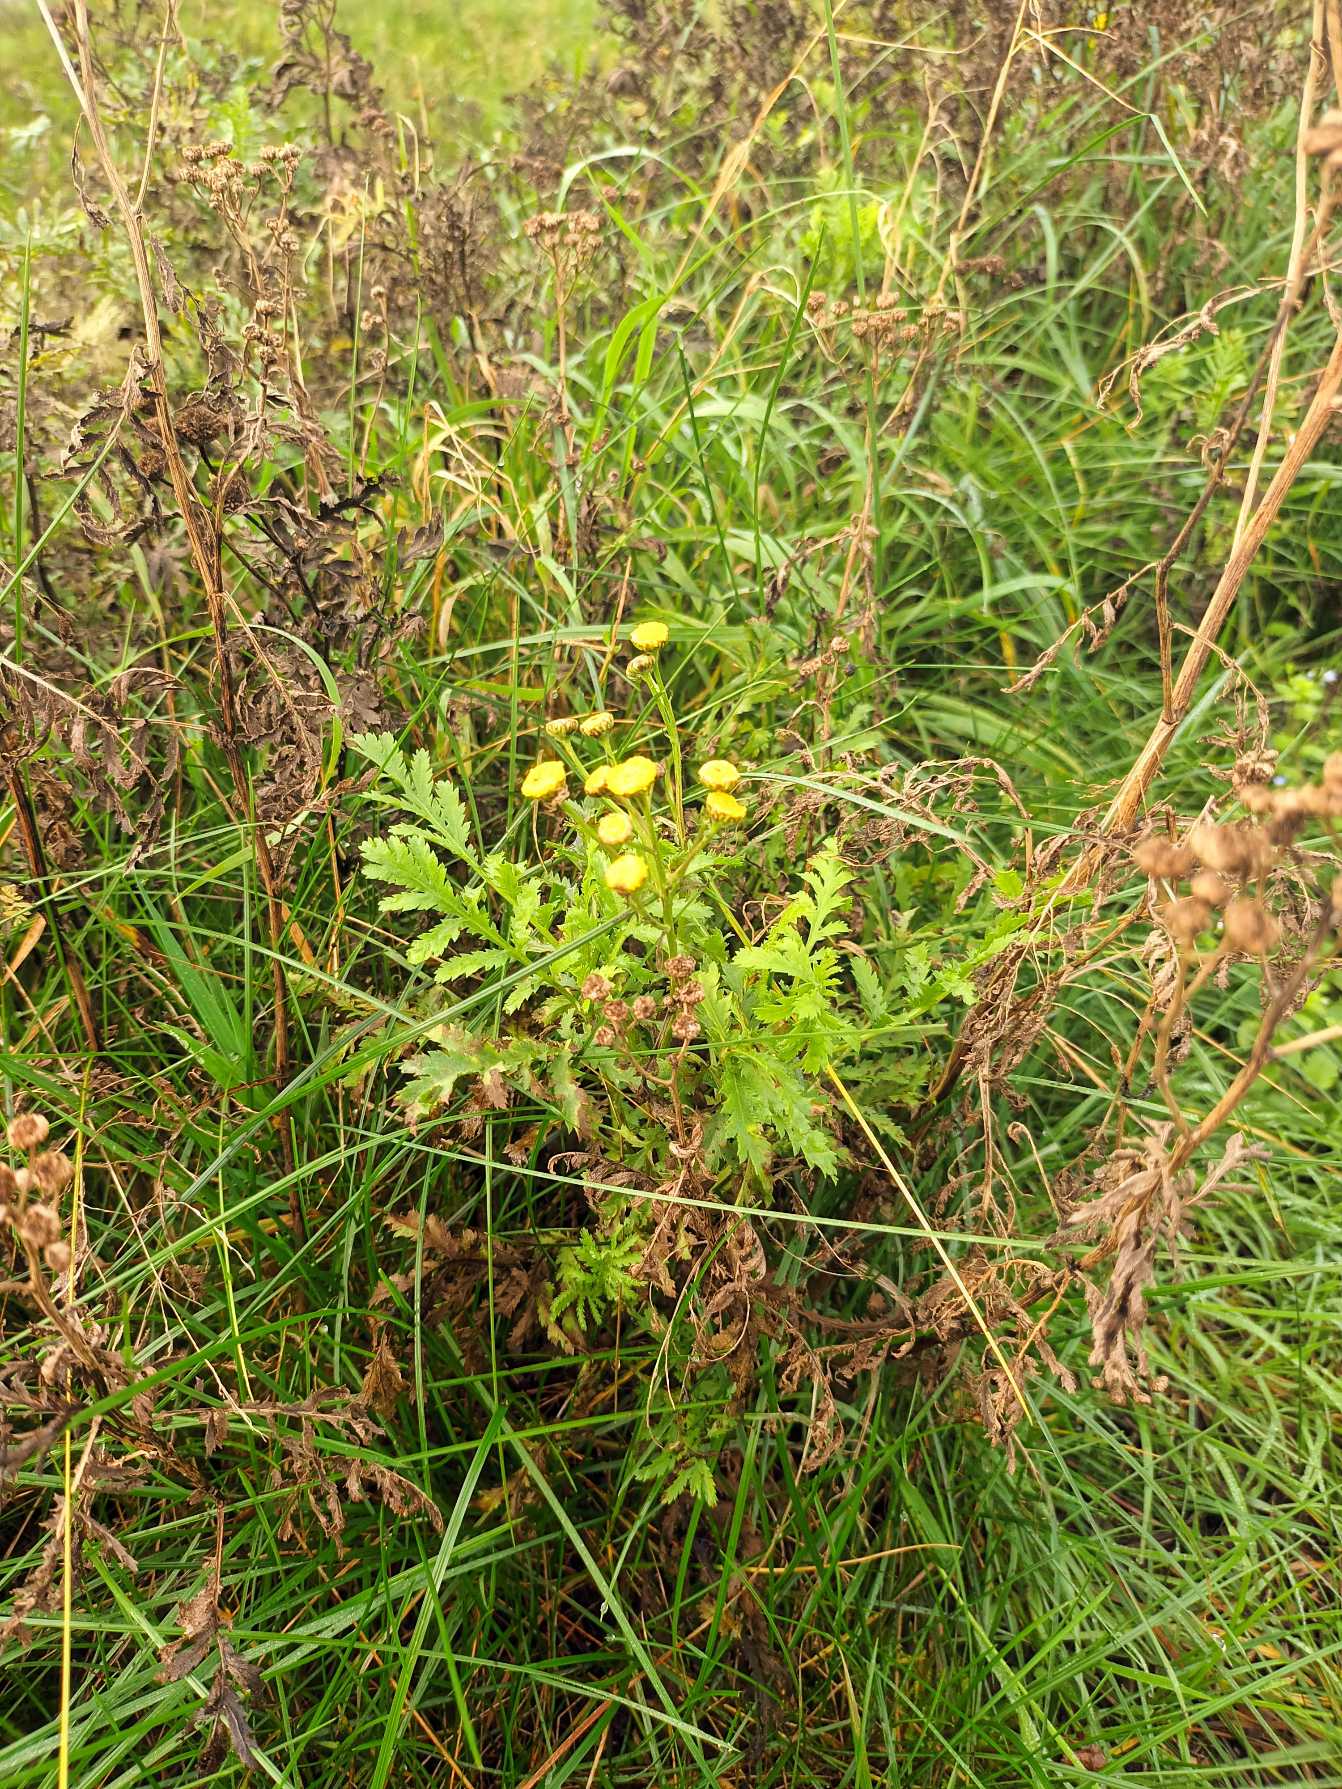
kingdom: Plantae
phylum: Tracheophyta
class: Magnoliopsida
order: Asterales
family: Asteraceae
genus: Tanacetum
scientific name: Tanacetum vulgare
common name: Rejnfan
